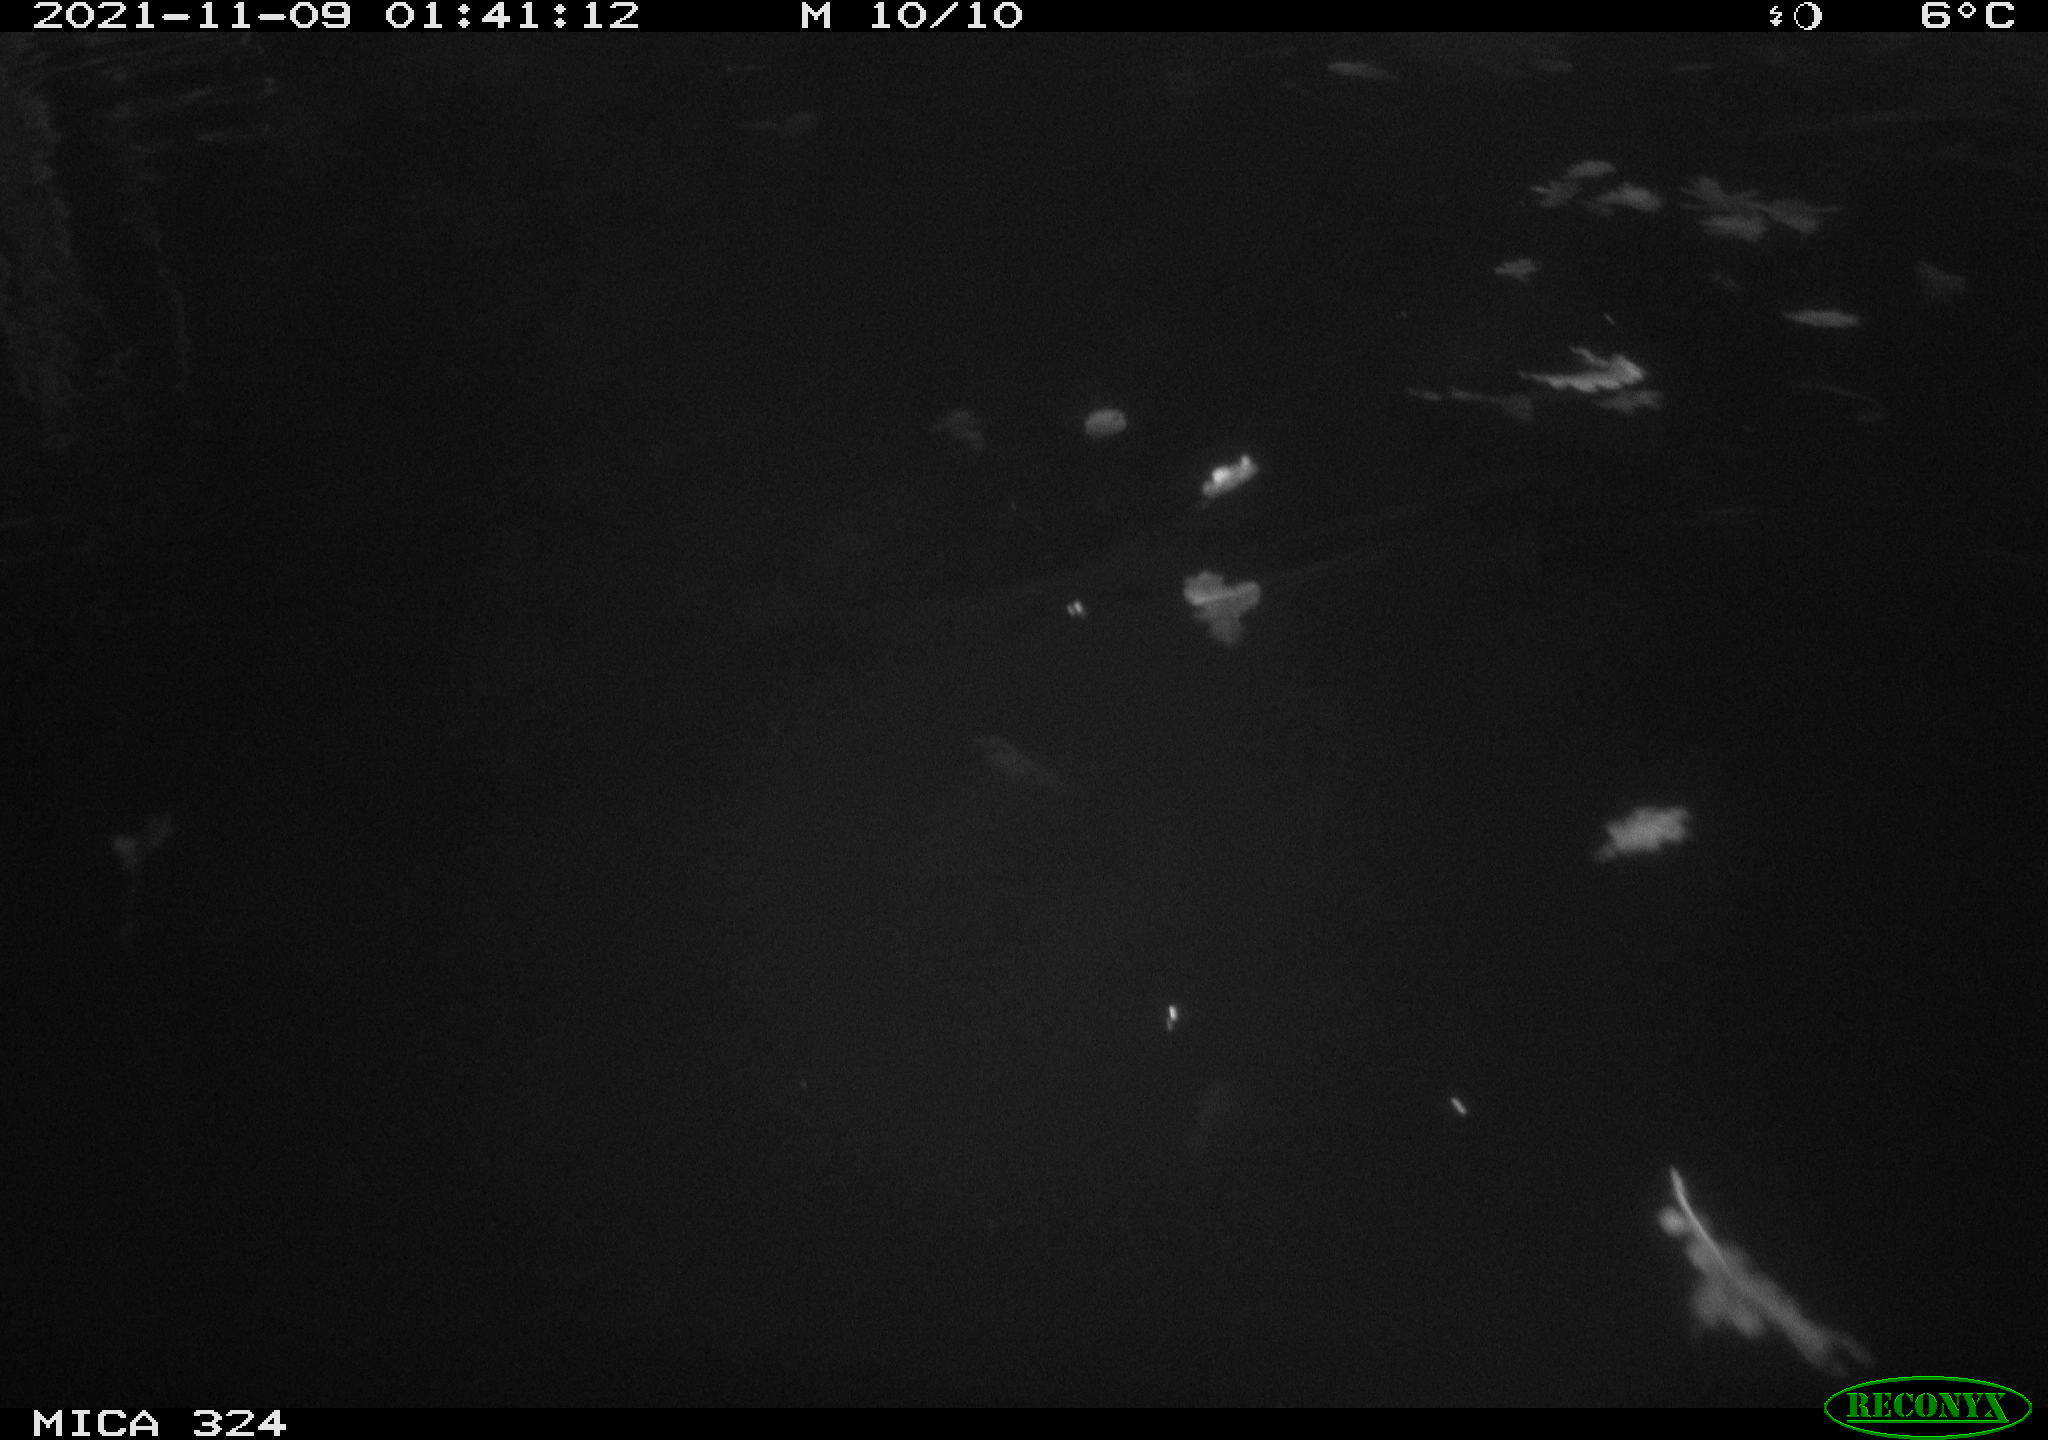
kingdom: Animalia
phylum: Chordata
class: Mammalia
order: Rodentia
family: Cricetidae
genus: Ondatra
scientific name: Ondatra zibethicus
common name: Muskrat
